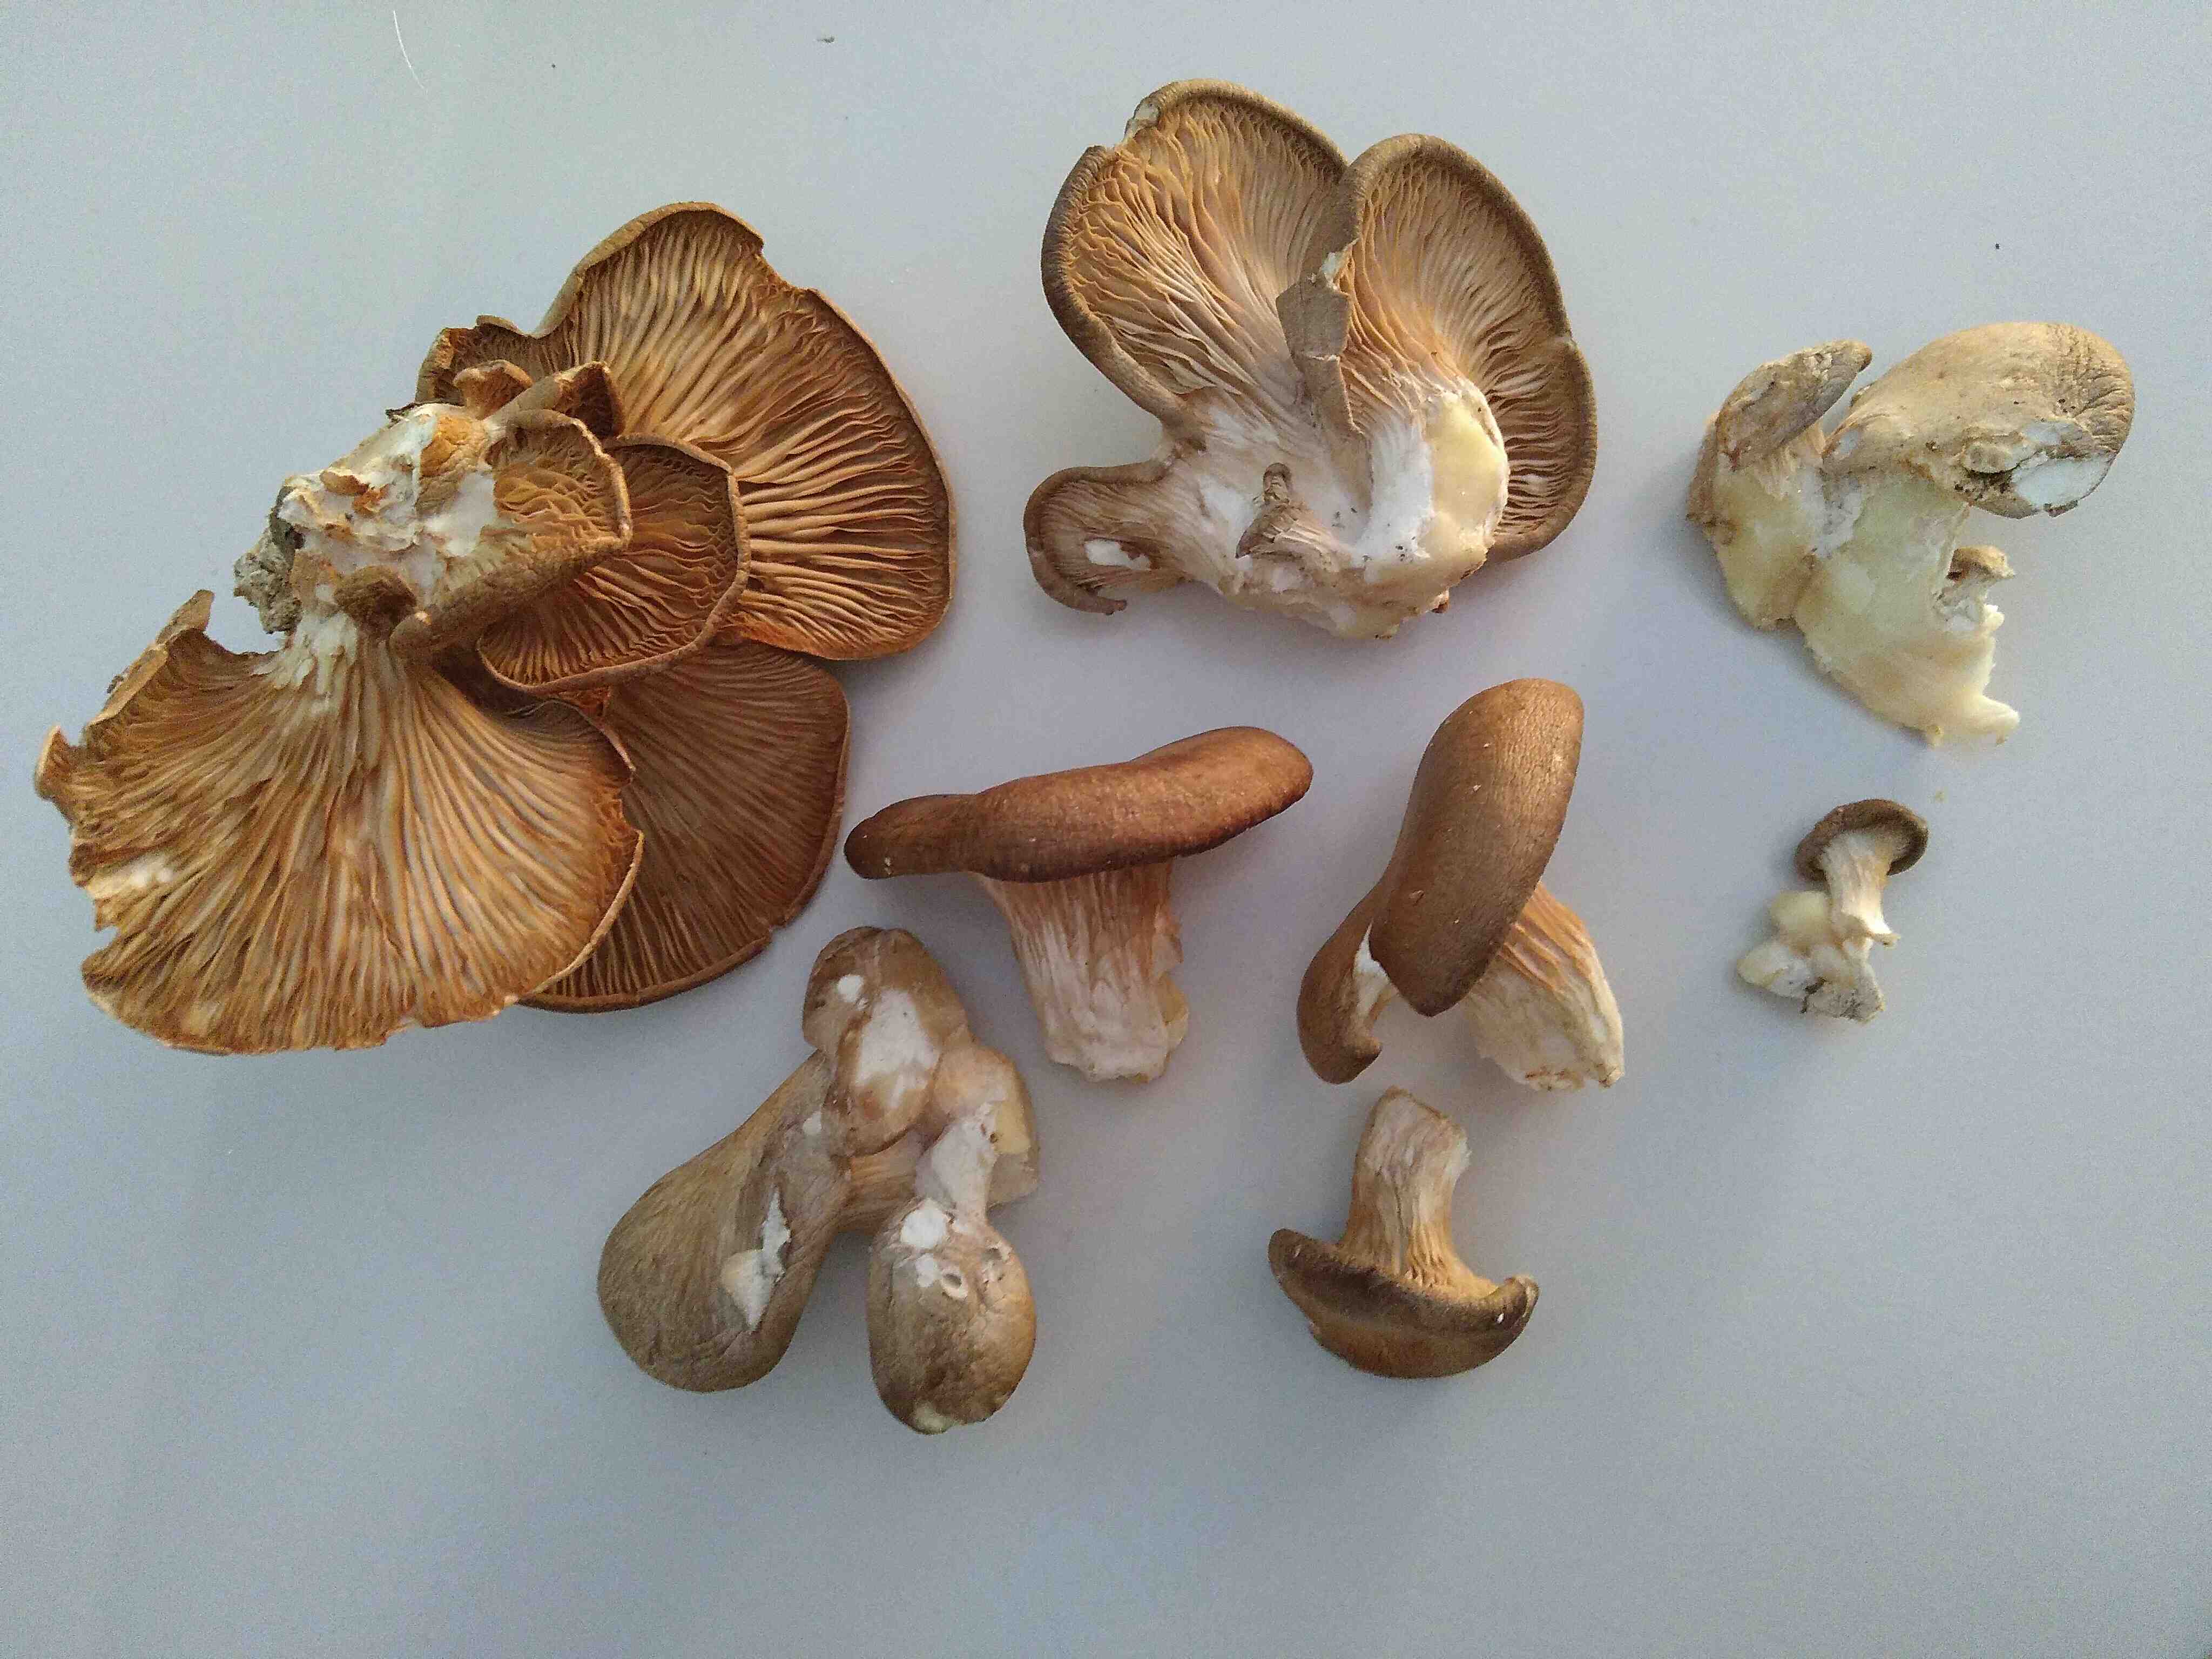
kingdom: Fungi
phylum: Basidiomycota
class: Agaricomycetes
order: Agaricales
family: Pleurotaceae
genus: Pleurotus
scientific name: Pleurotus ostreatus
